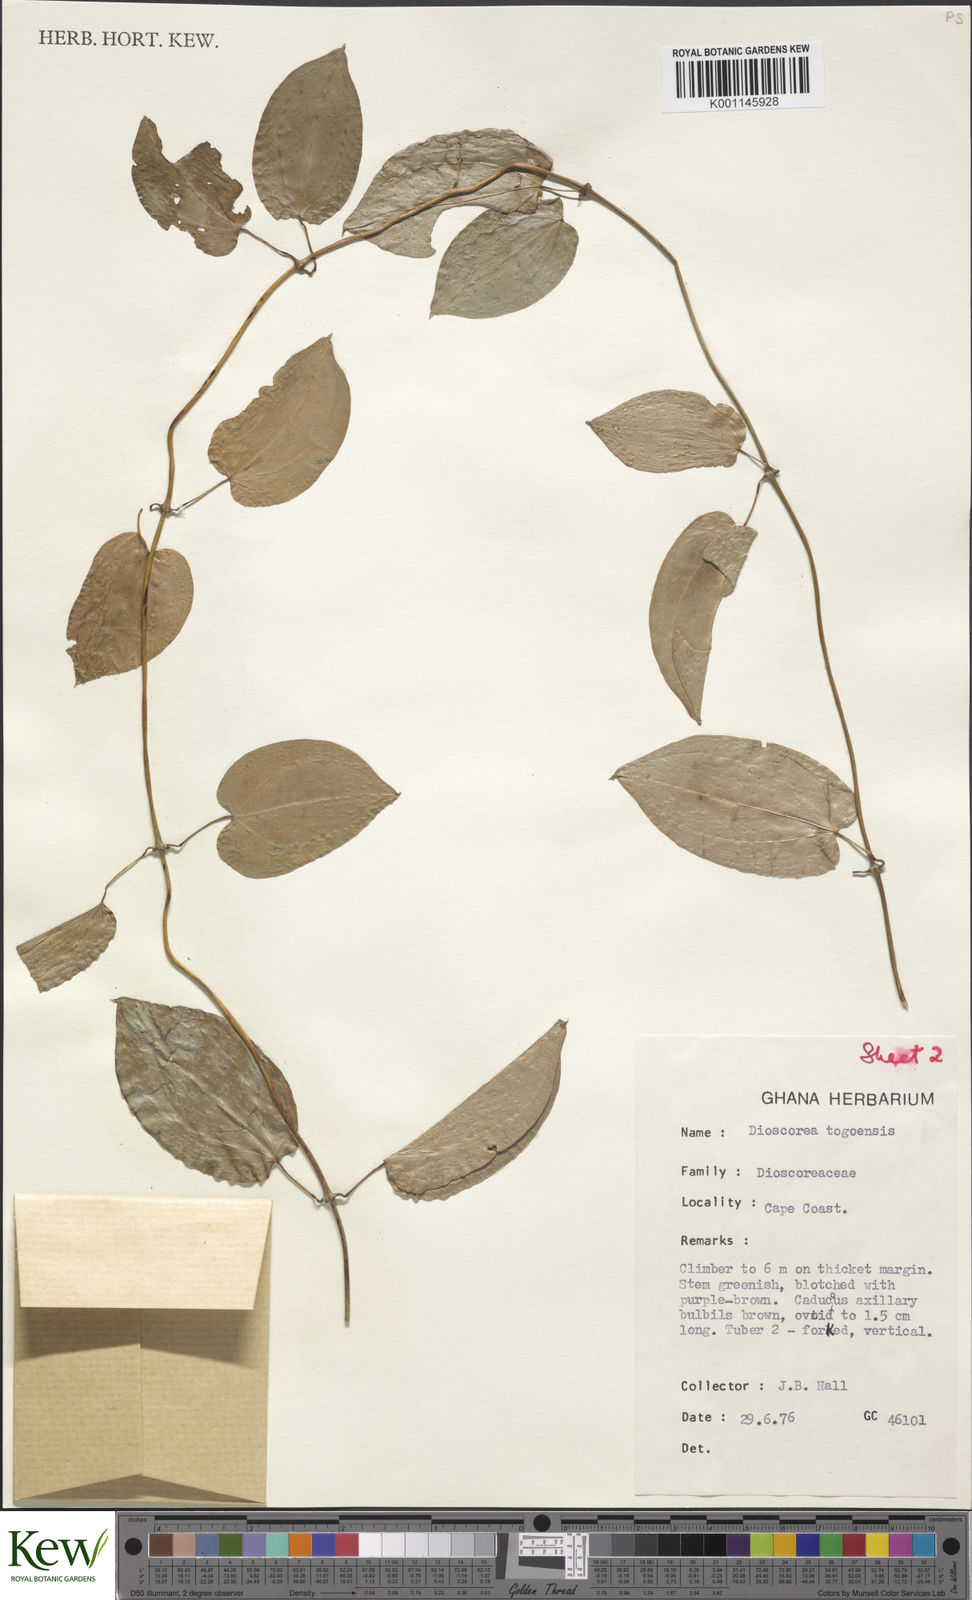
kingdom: Plantae
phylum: Tracheophyta
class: Liliopsida
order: Dioscoreales
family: Dioscoreaceae
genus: Dioscorea
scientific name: Dioscorea togoensis
